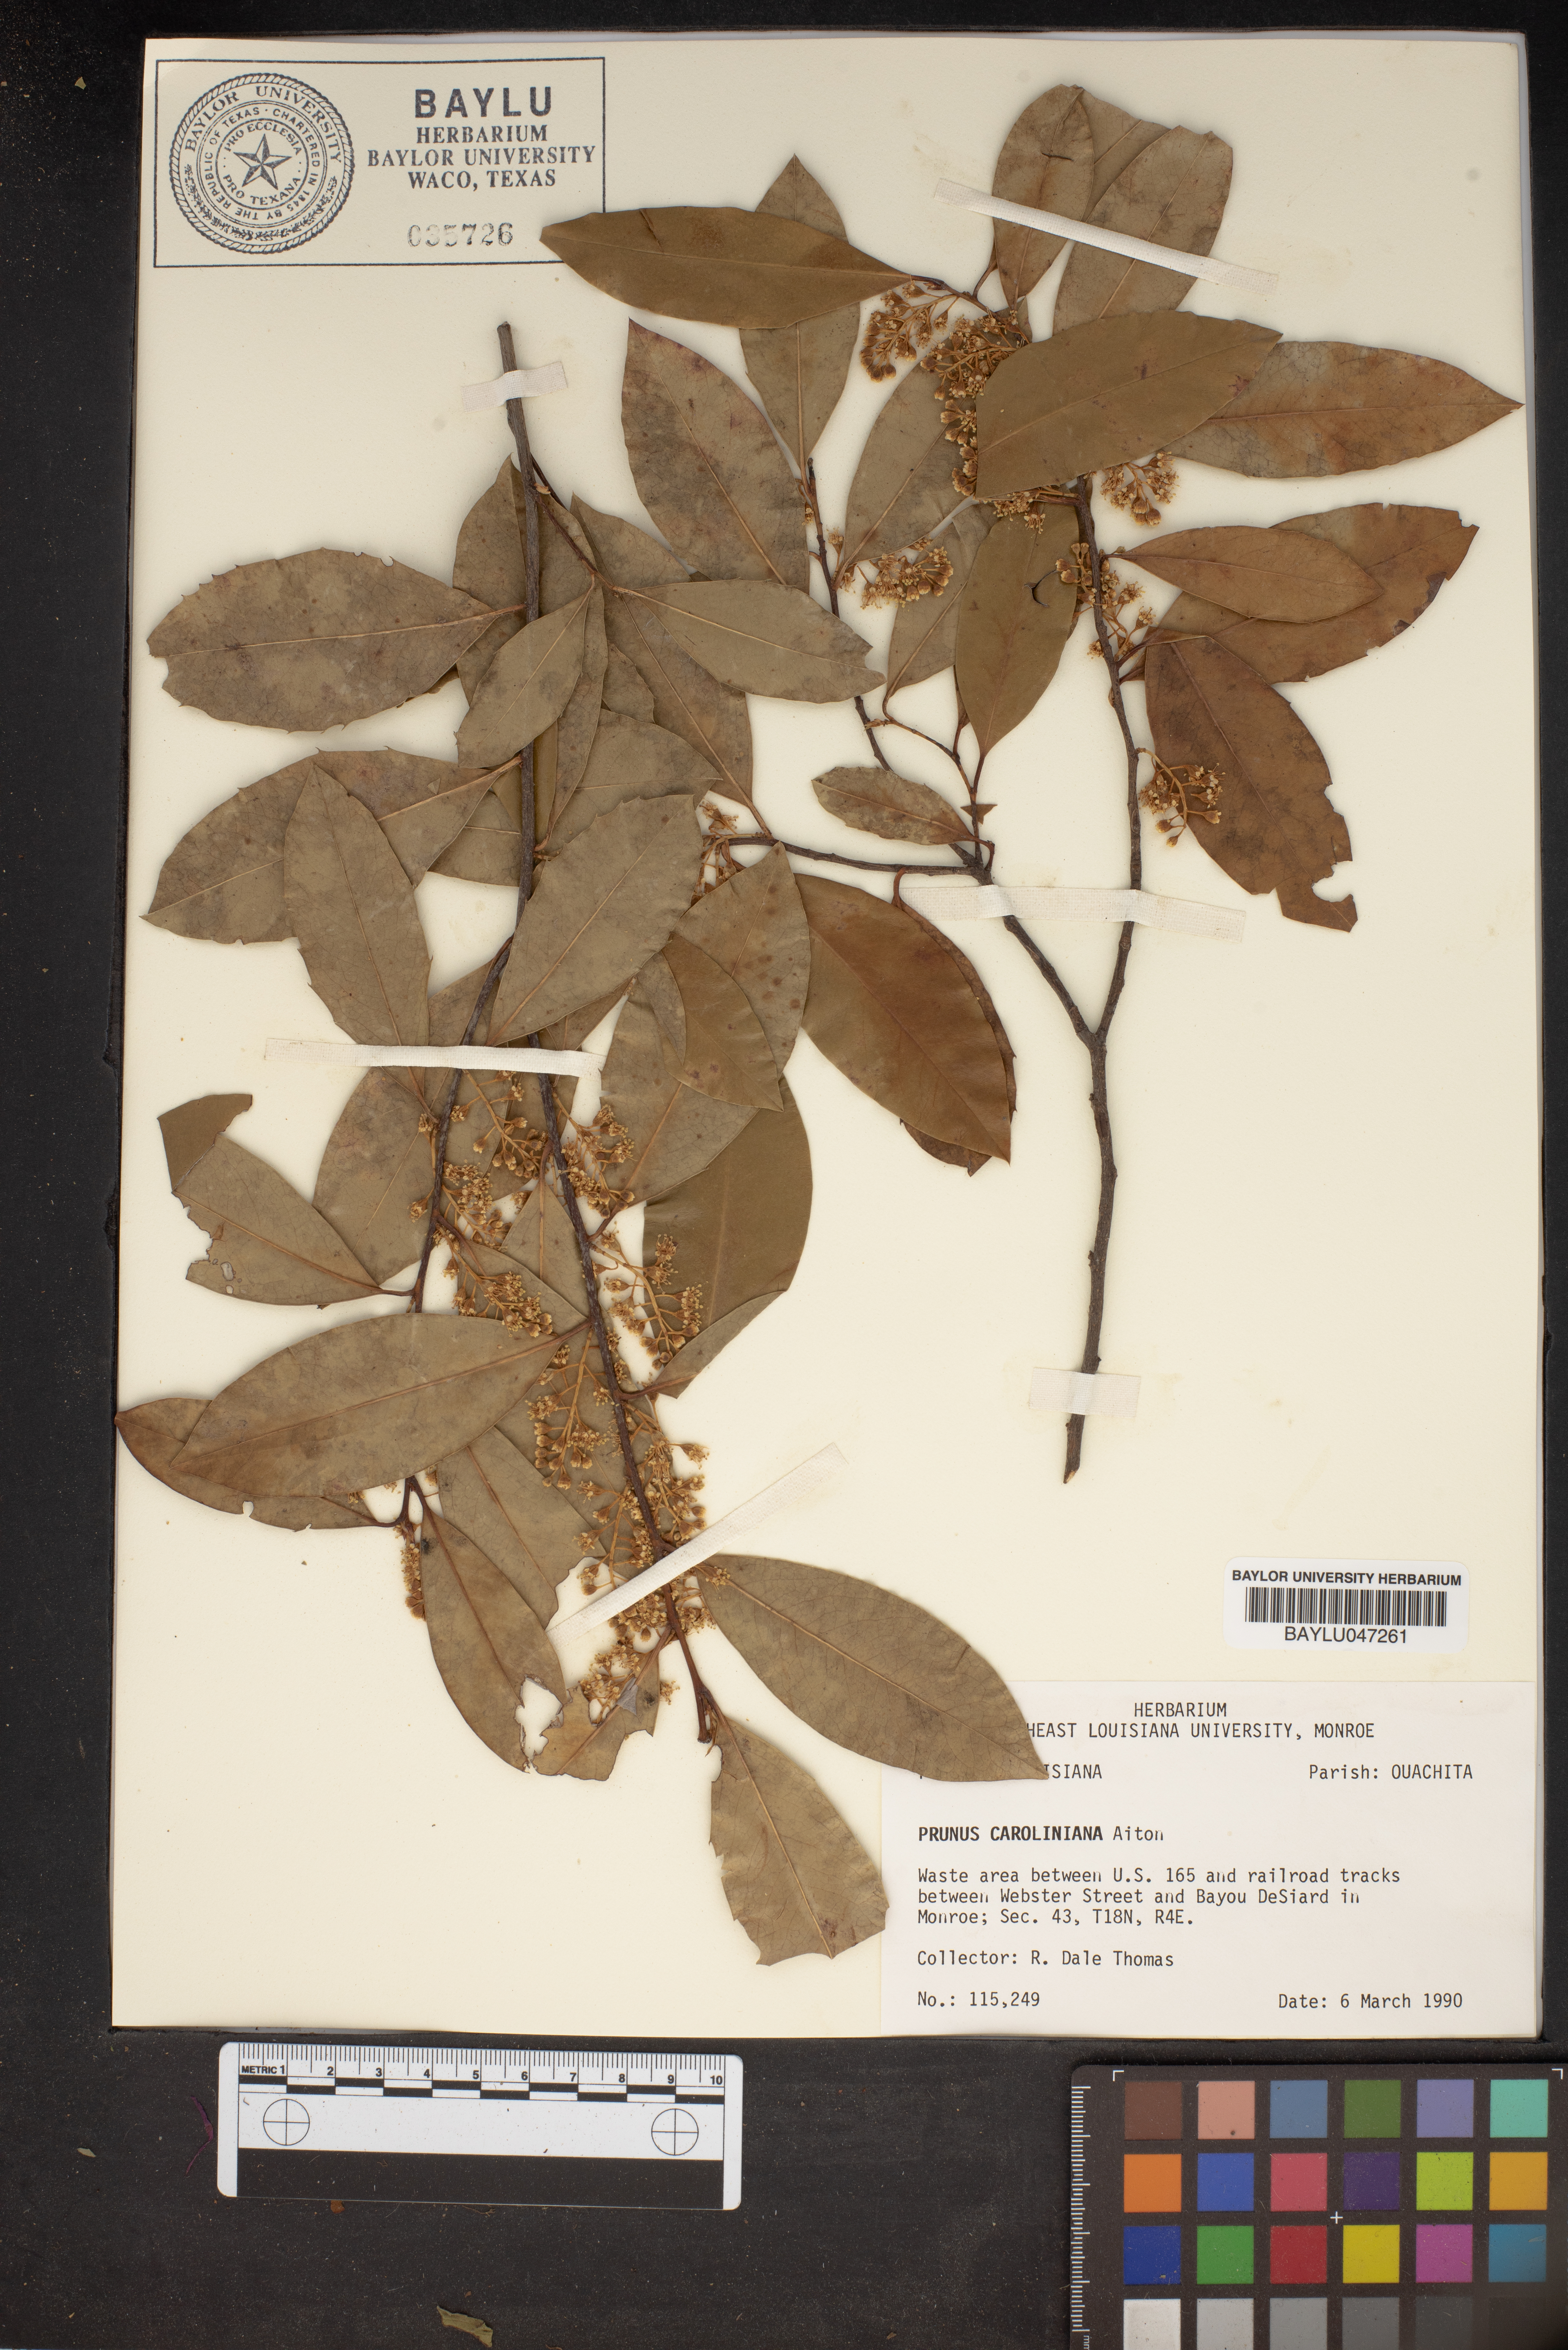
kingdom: Plantae
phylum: Tracheophyta
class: Magnoliopsida
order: Rosales
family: Rosaceae
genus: Prunus
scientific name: Prunus caroliniana
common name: Carolina laurel cherry
